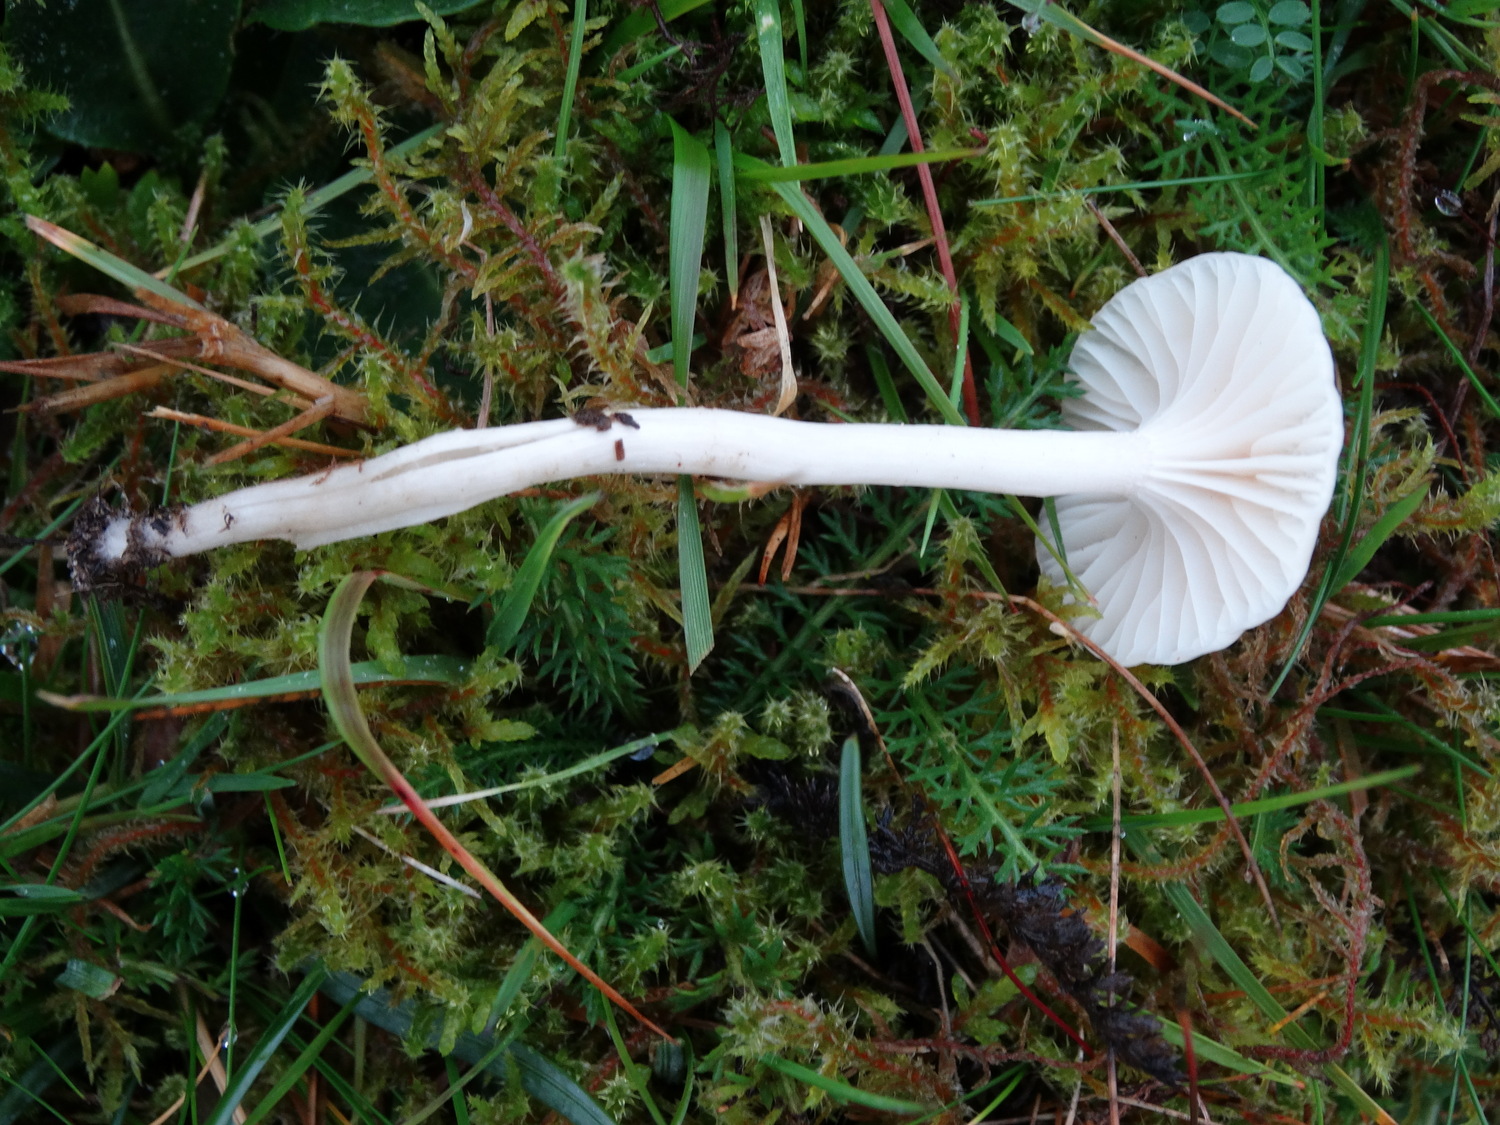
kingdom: Fungi
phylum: Basidiomycota
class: Agaricomycetes
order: Agaricales
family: Hygrophoraceae
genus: Cuphophyllus
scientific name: Cuphophyllus virgineus
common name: brunøjet vokshat
